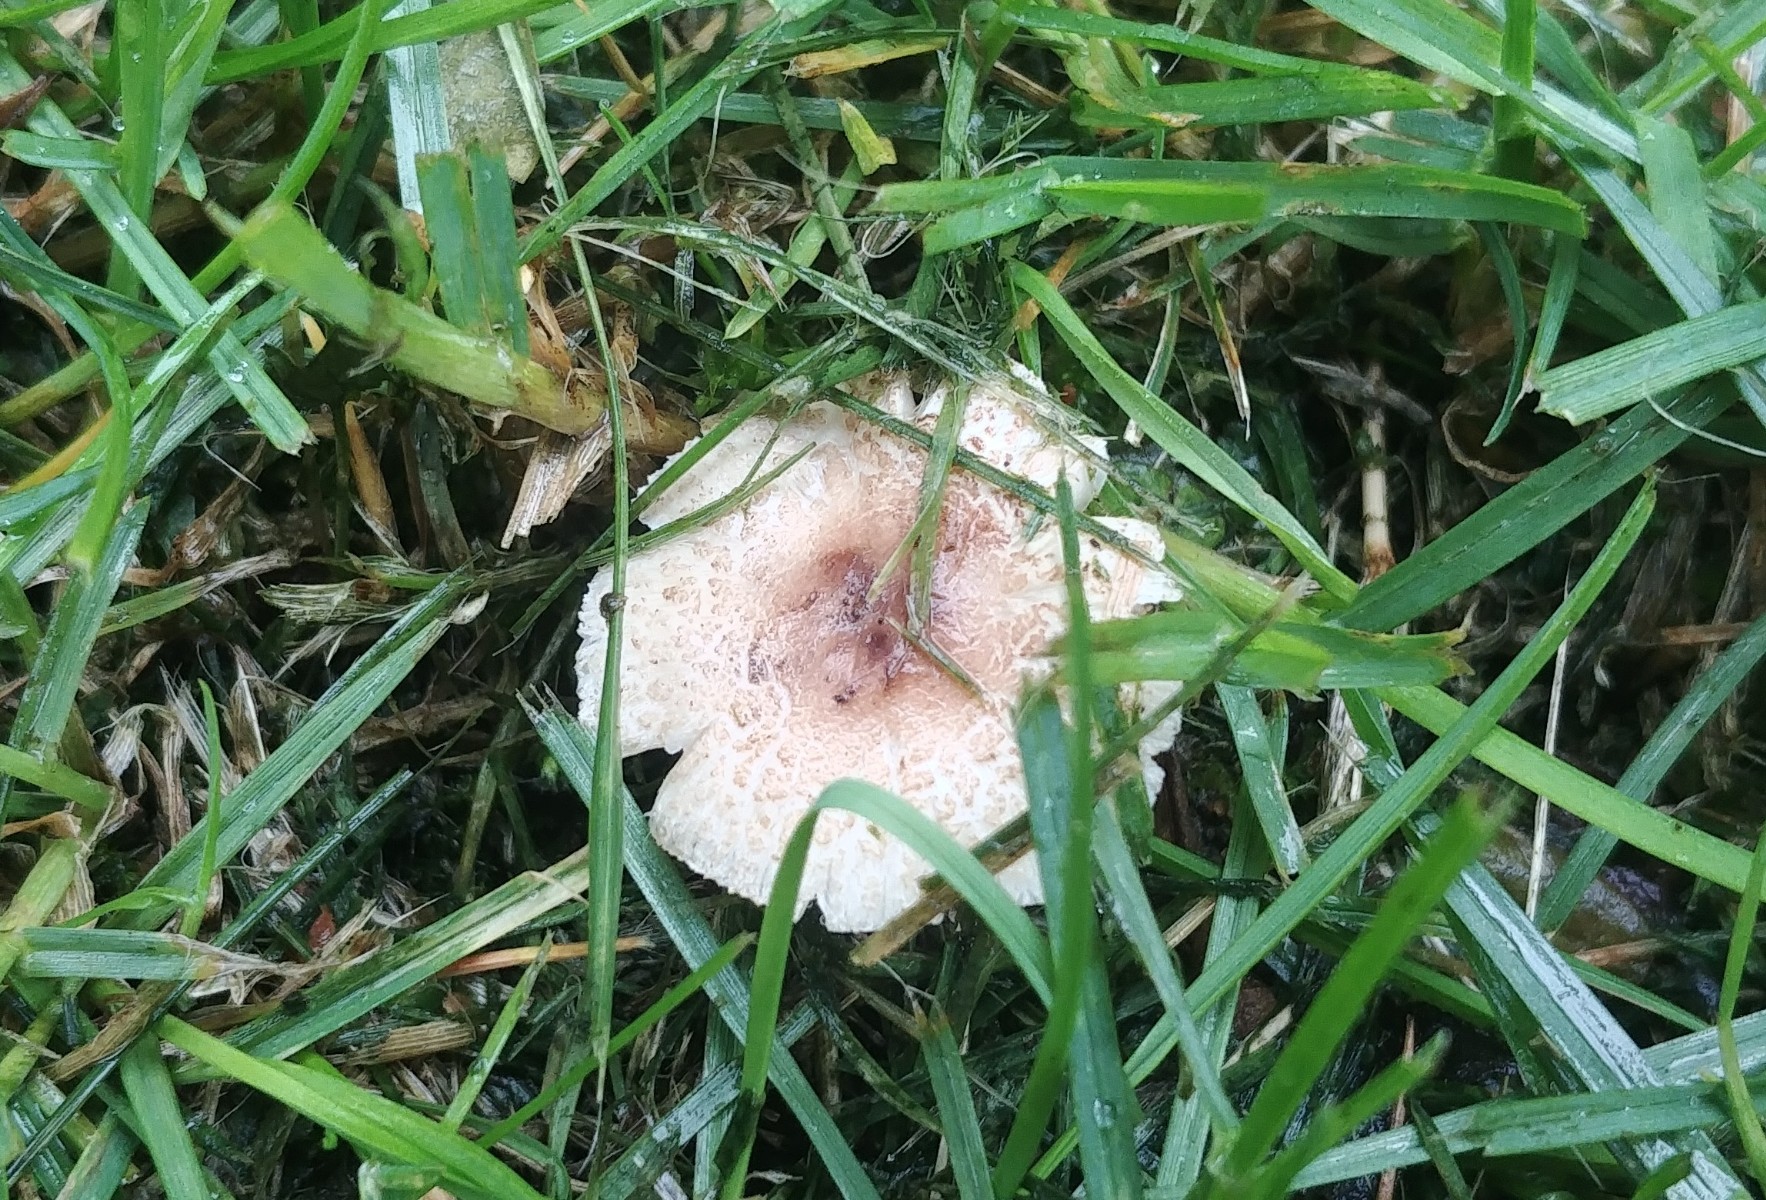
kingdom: Fungi
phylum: Basidiomycota
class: Agaricomycetes
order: Agaricales
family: Agaricaceae
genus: Lepiota
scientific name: Lepiota lilacea
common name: lillabrun parasolhat
